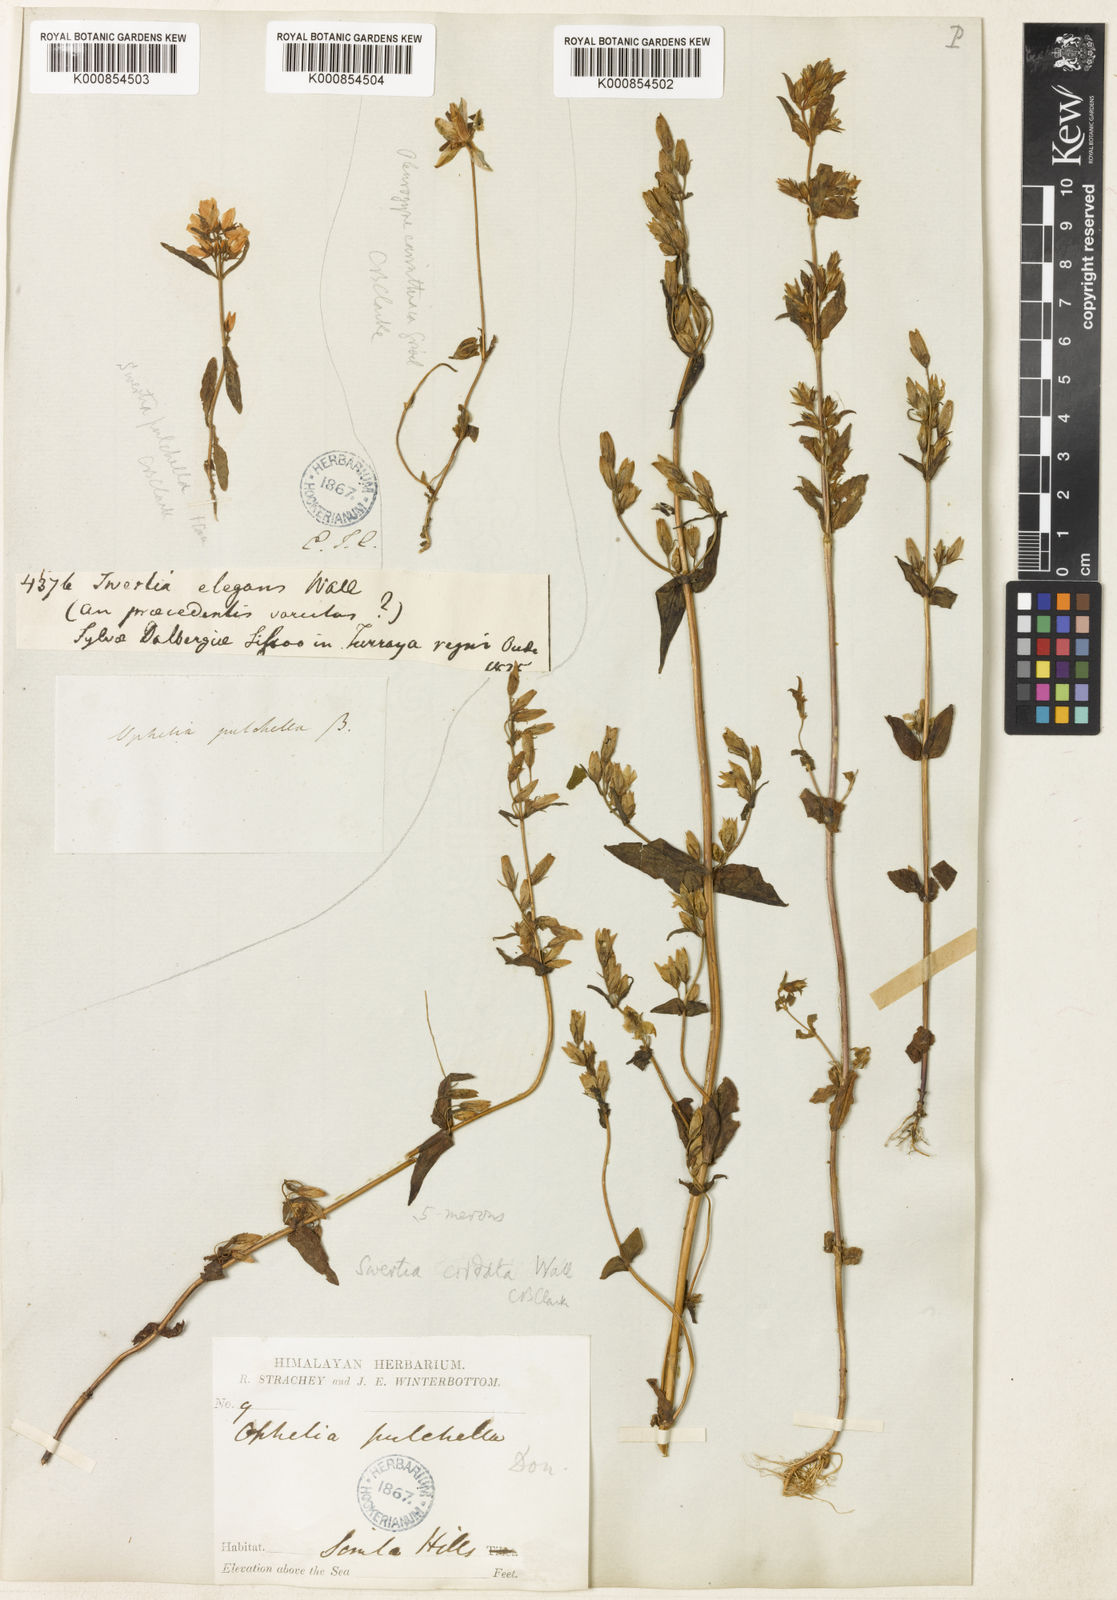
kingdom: Plantae
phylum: Tracheophyta
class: Magnoliopsida
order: Gentianales
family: Gentianaceae
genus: Swertia
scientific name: Swertia
